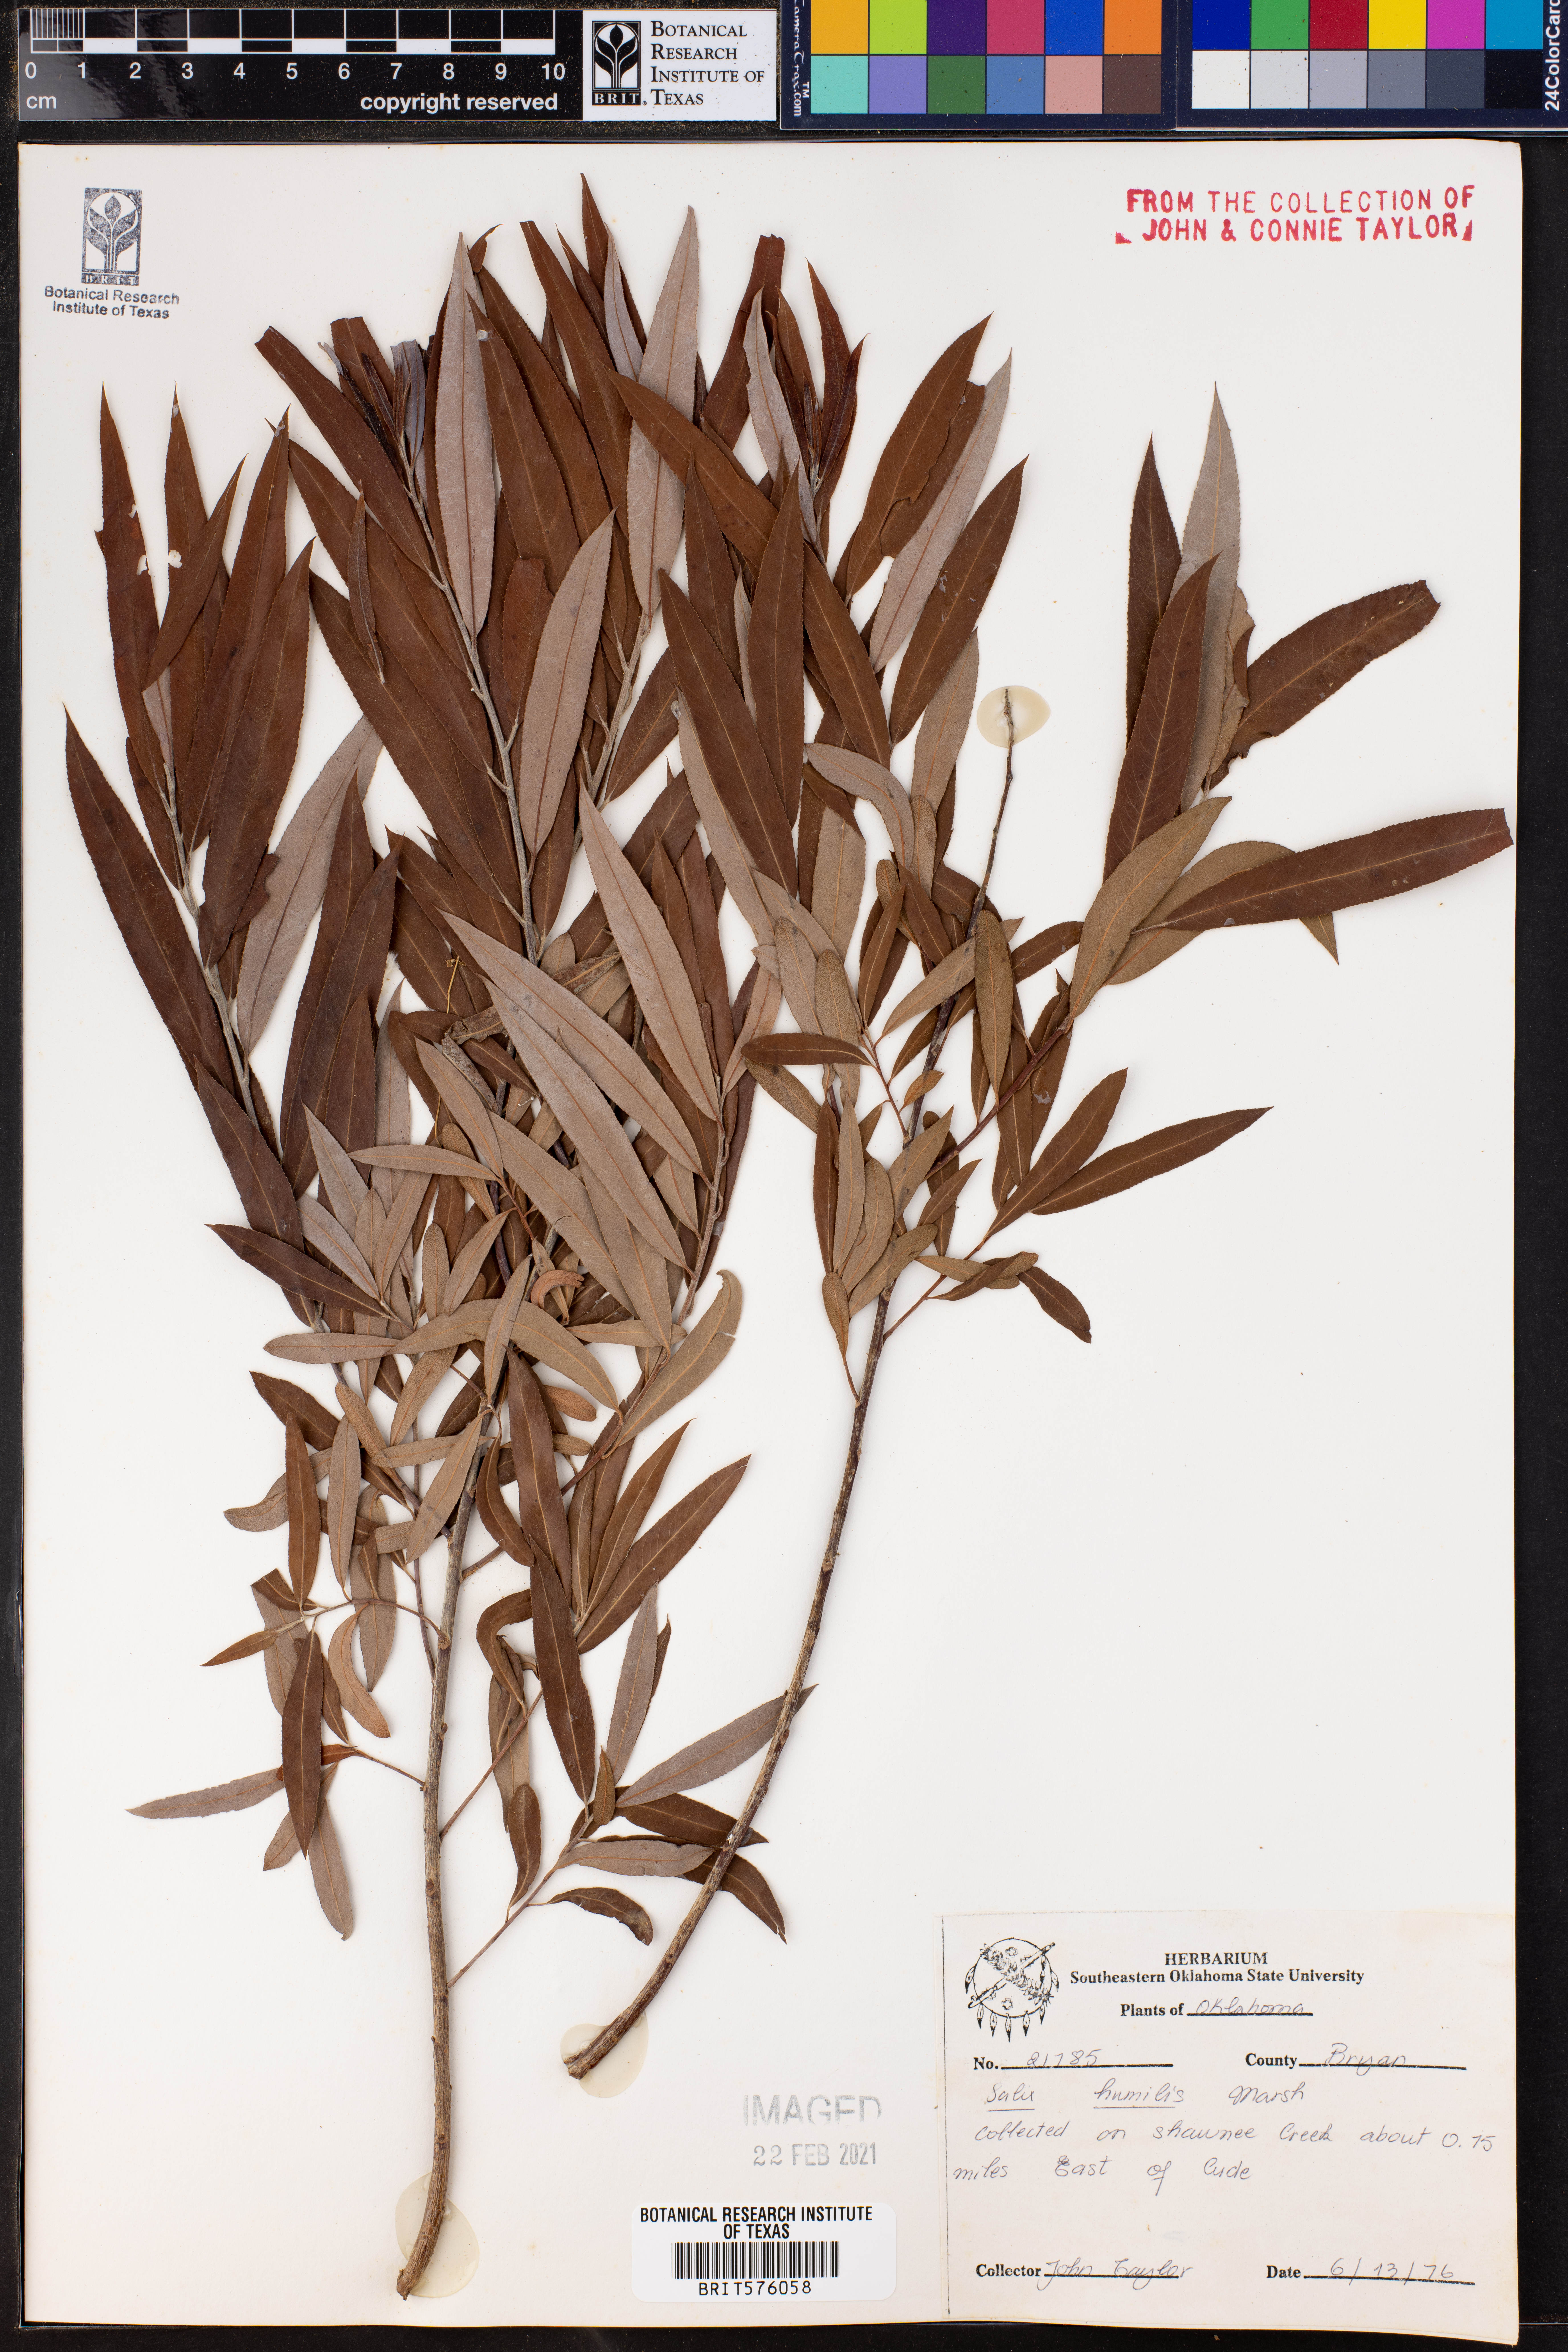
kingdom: Plantae
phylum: Tracheophyta
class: Magnoliopsida
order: Malpighiales
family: Salicaceae
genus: Salix
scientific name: Salix humilis
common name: Prairie willow
